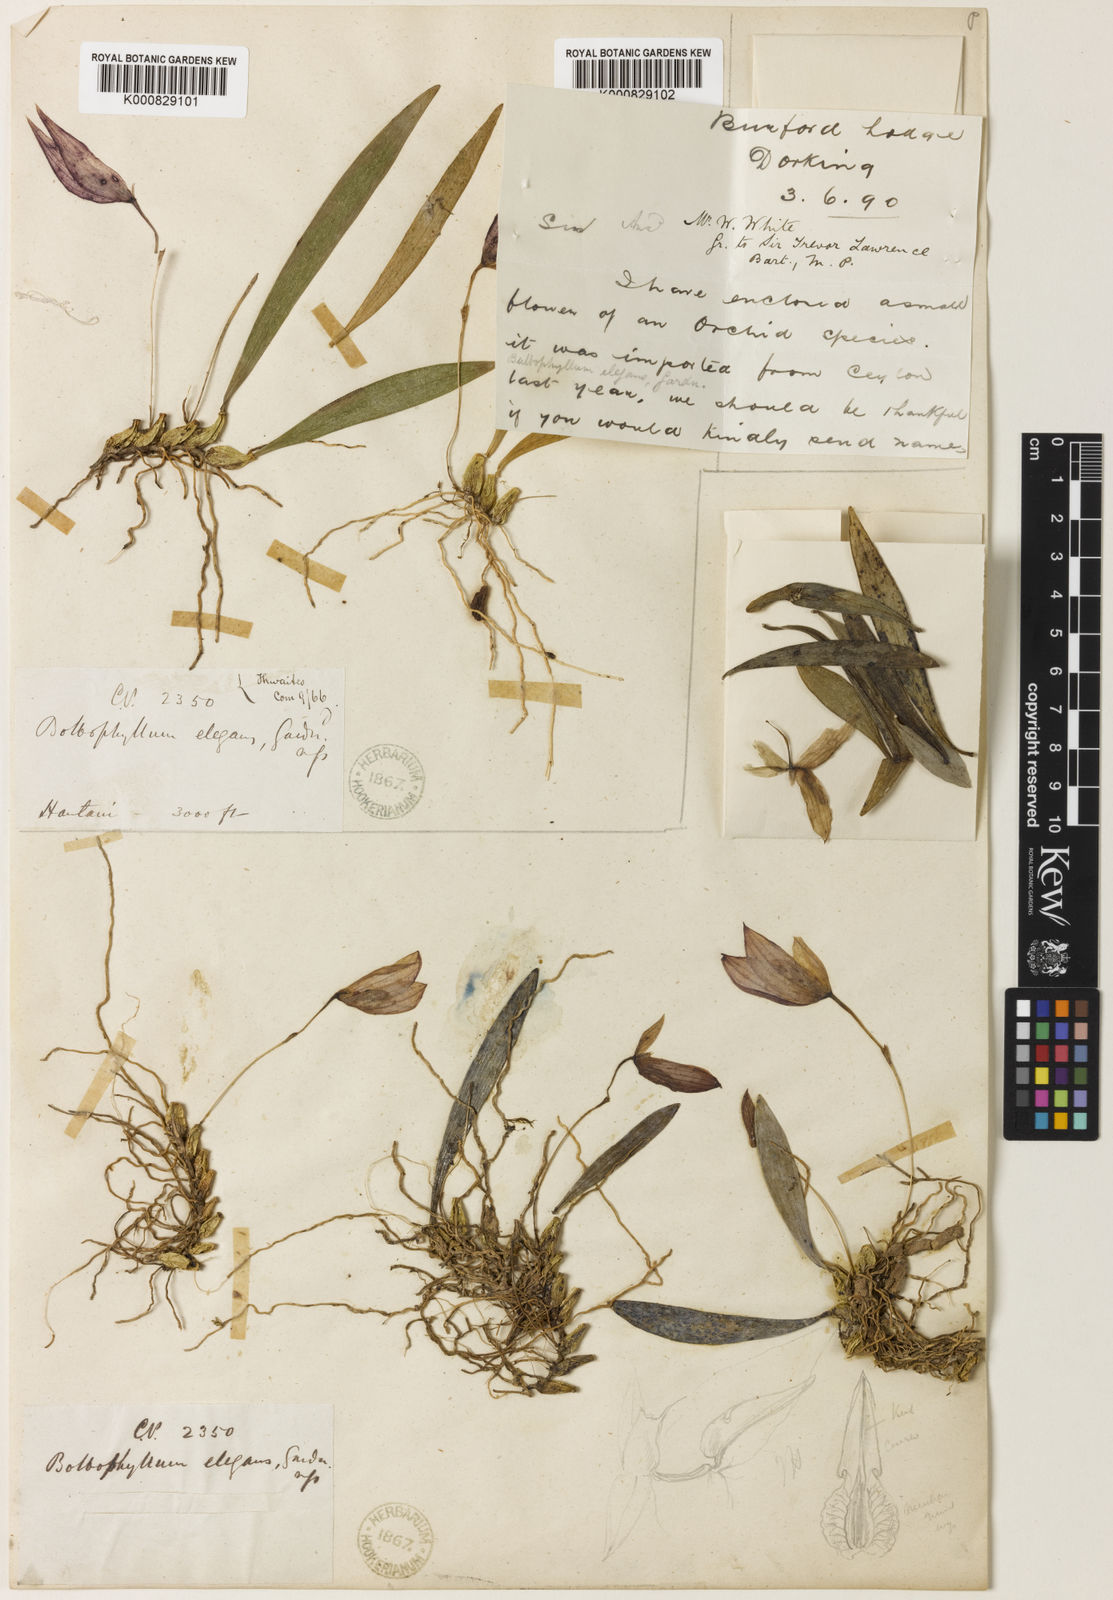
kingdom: Plantae
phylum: Tracheophyta
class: Liliopsida
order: Asparagales
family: Orchidaceae
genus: Bulbophyllum
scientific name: Bulbophyllum elegans
